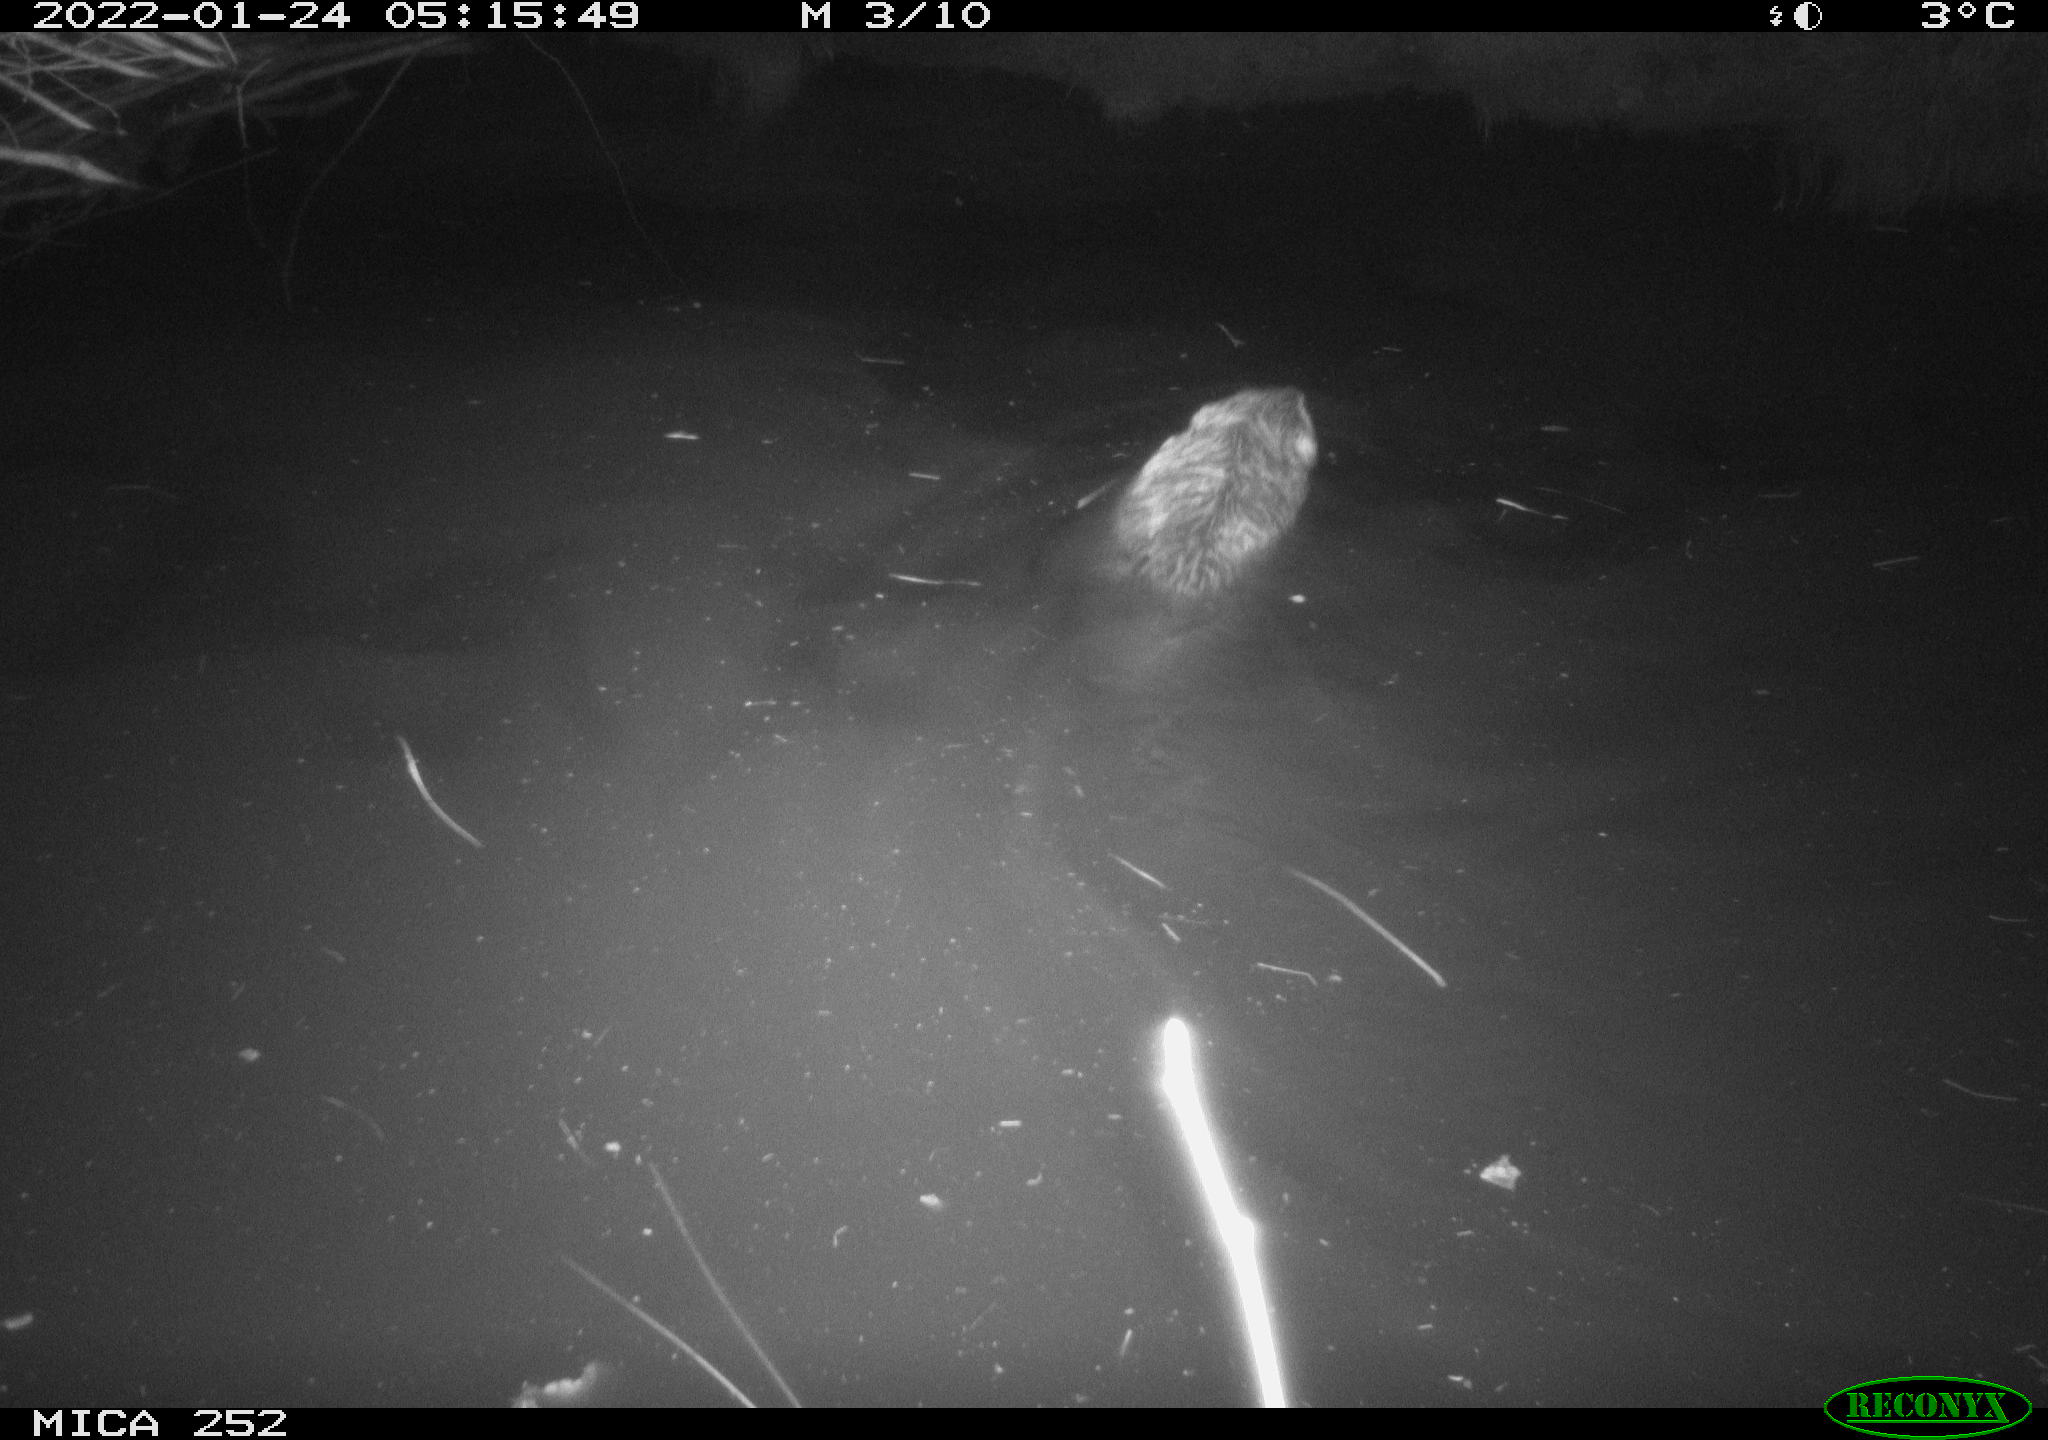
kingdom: Animalia
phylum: Chordata
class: Mammalia
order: Rodentia
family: Castoridae
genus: Castor
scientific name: Castor fiber
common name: Eurasian beaver
